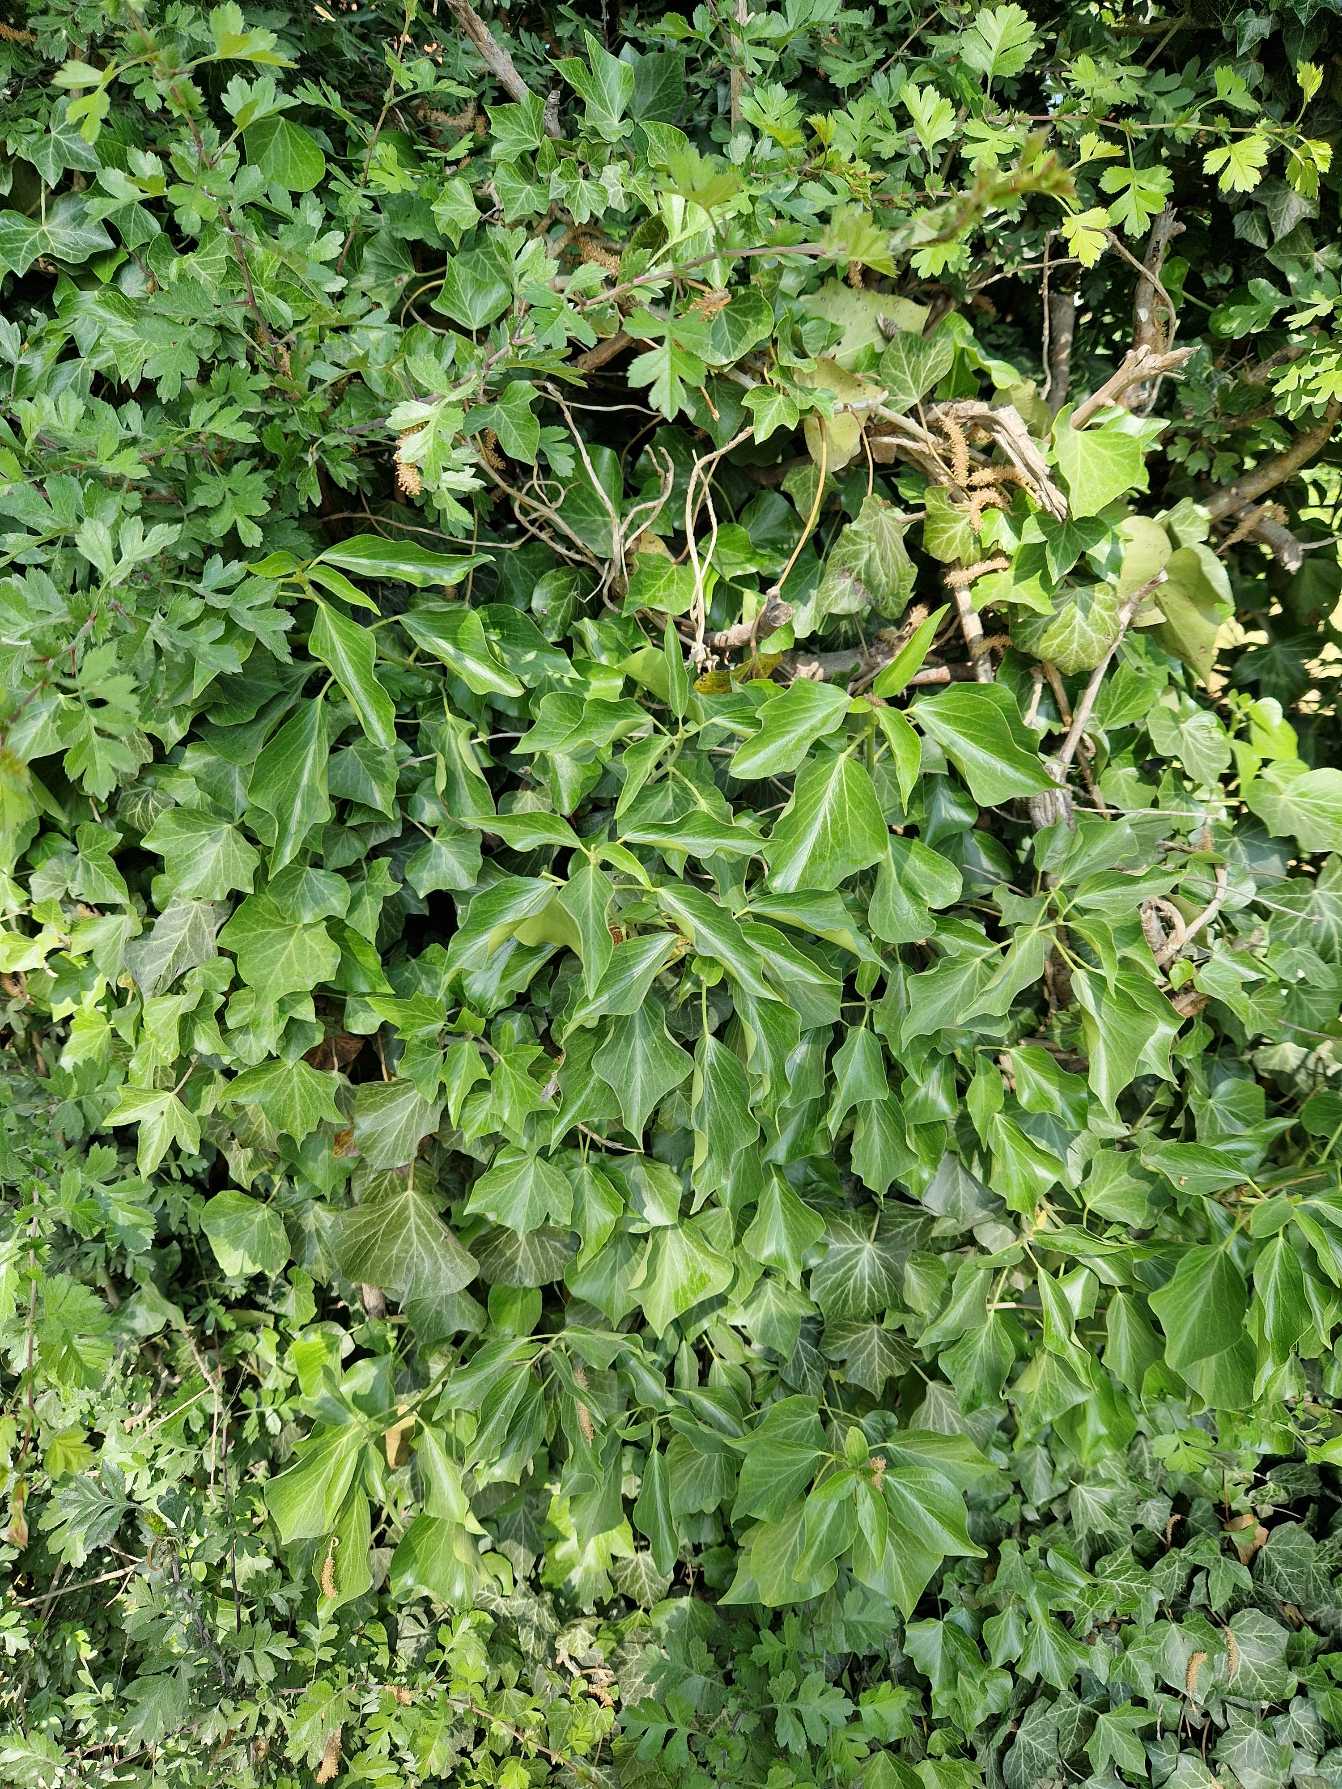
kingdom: Plantae
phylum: Tracheophyta
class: Magnoliopsida
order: Apiales
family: Araliaceae
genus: Hedera
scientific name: Hedera helix
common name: Vedbend
